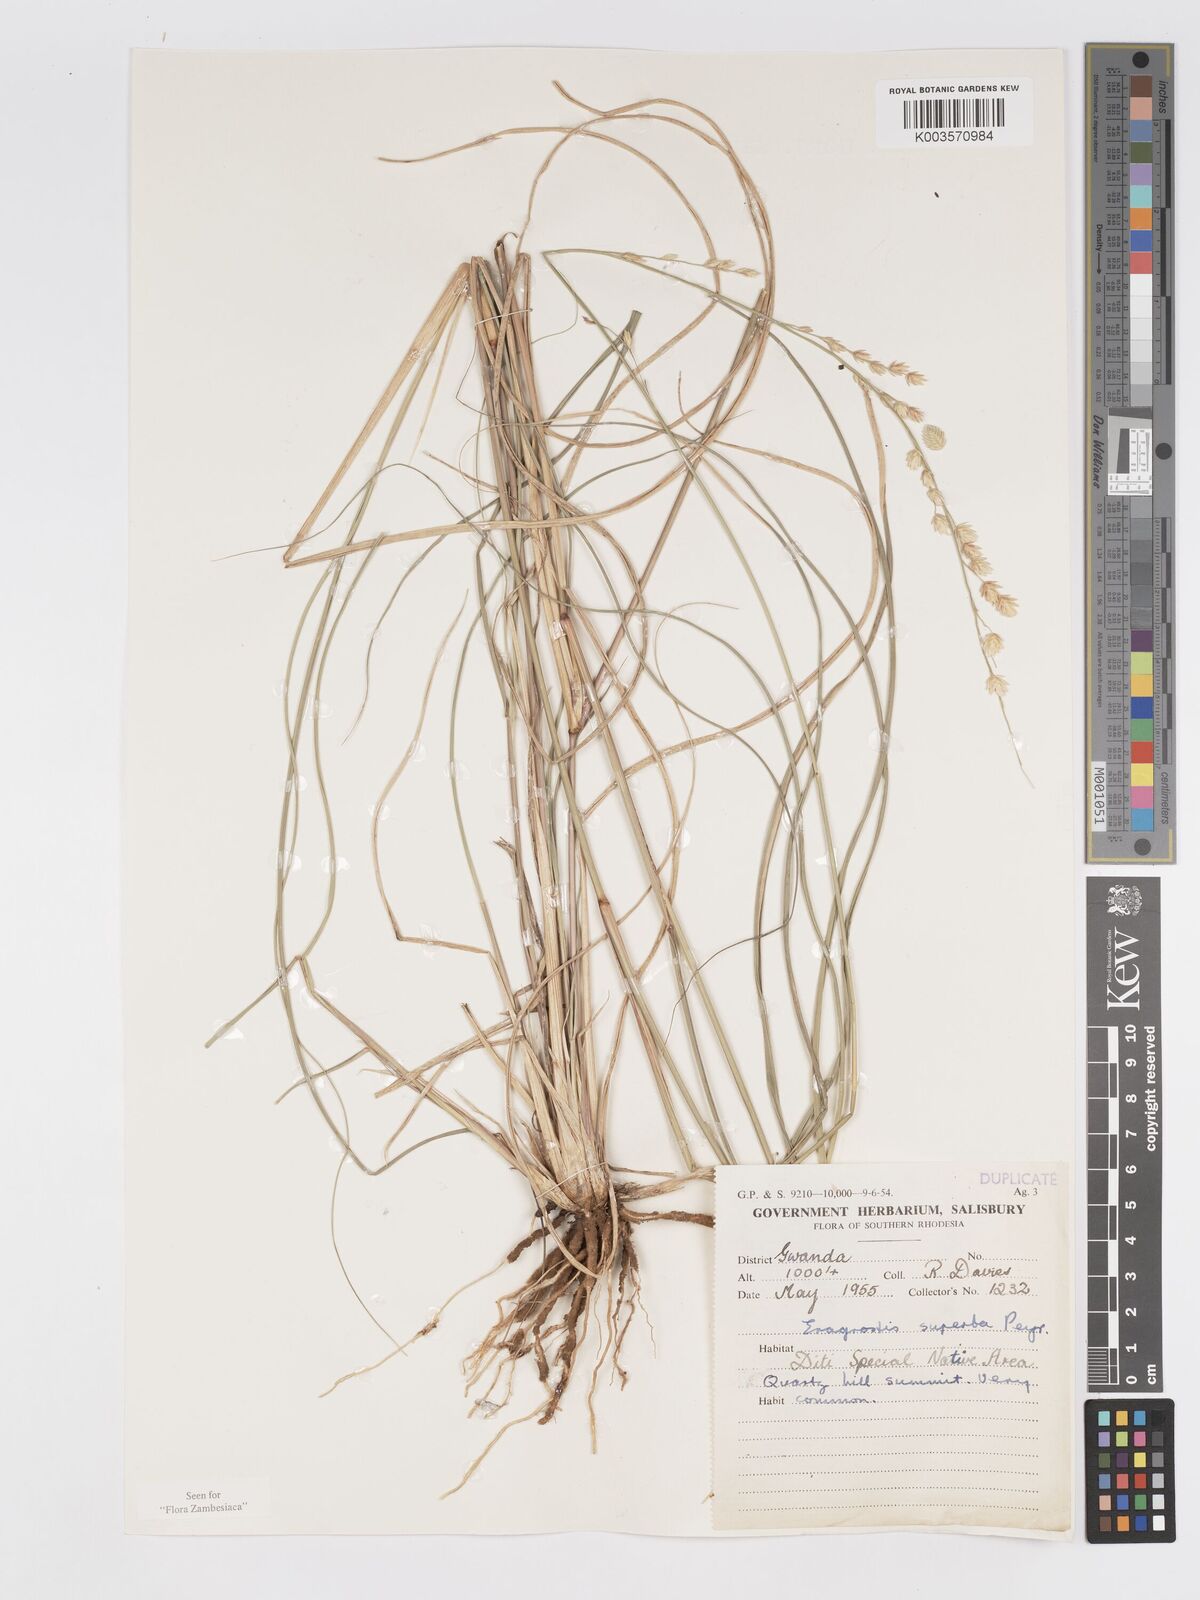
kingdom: Plantae
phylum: Tracheophyta
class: Liliopsida
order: Poales
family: Poaceae
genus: Eragrostis
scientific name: Eragrostis superba
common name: Wilman lovegrass
